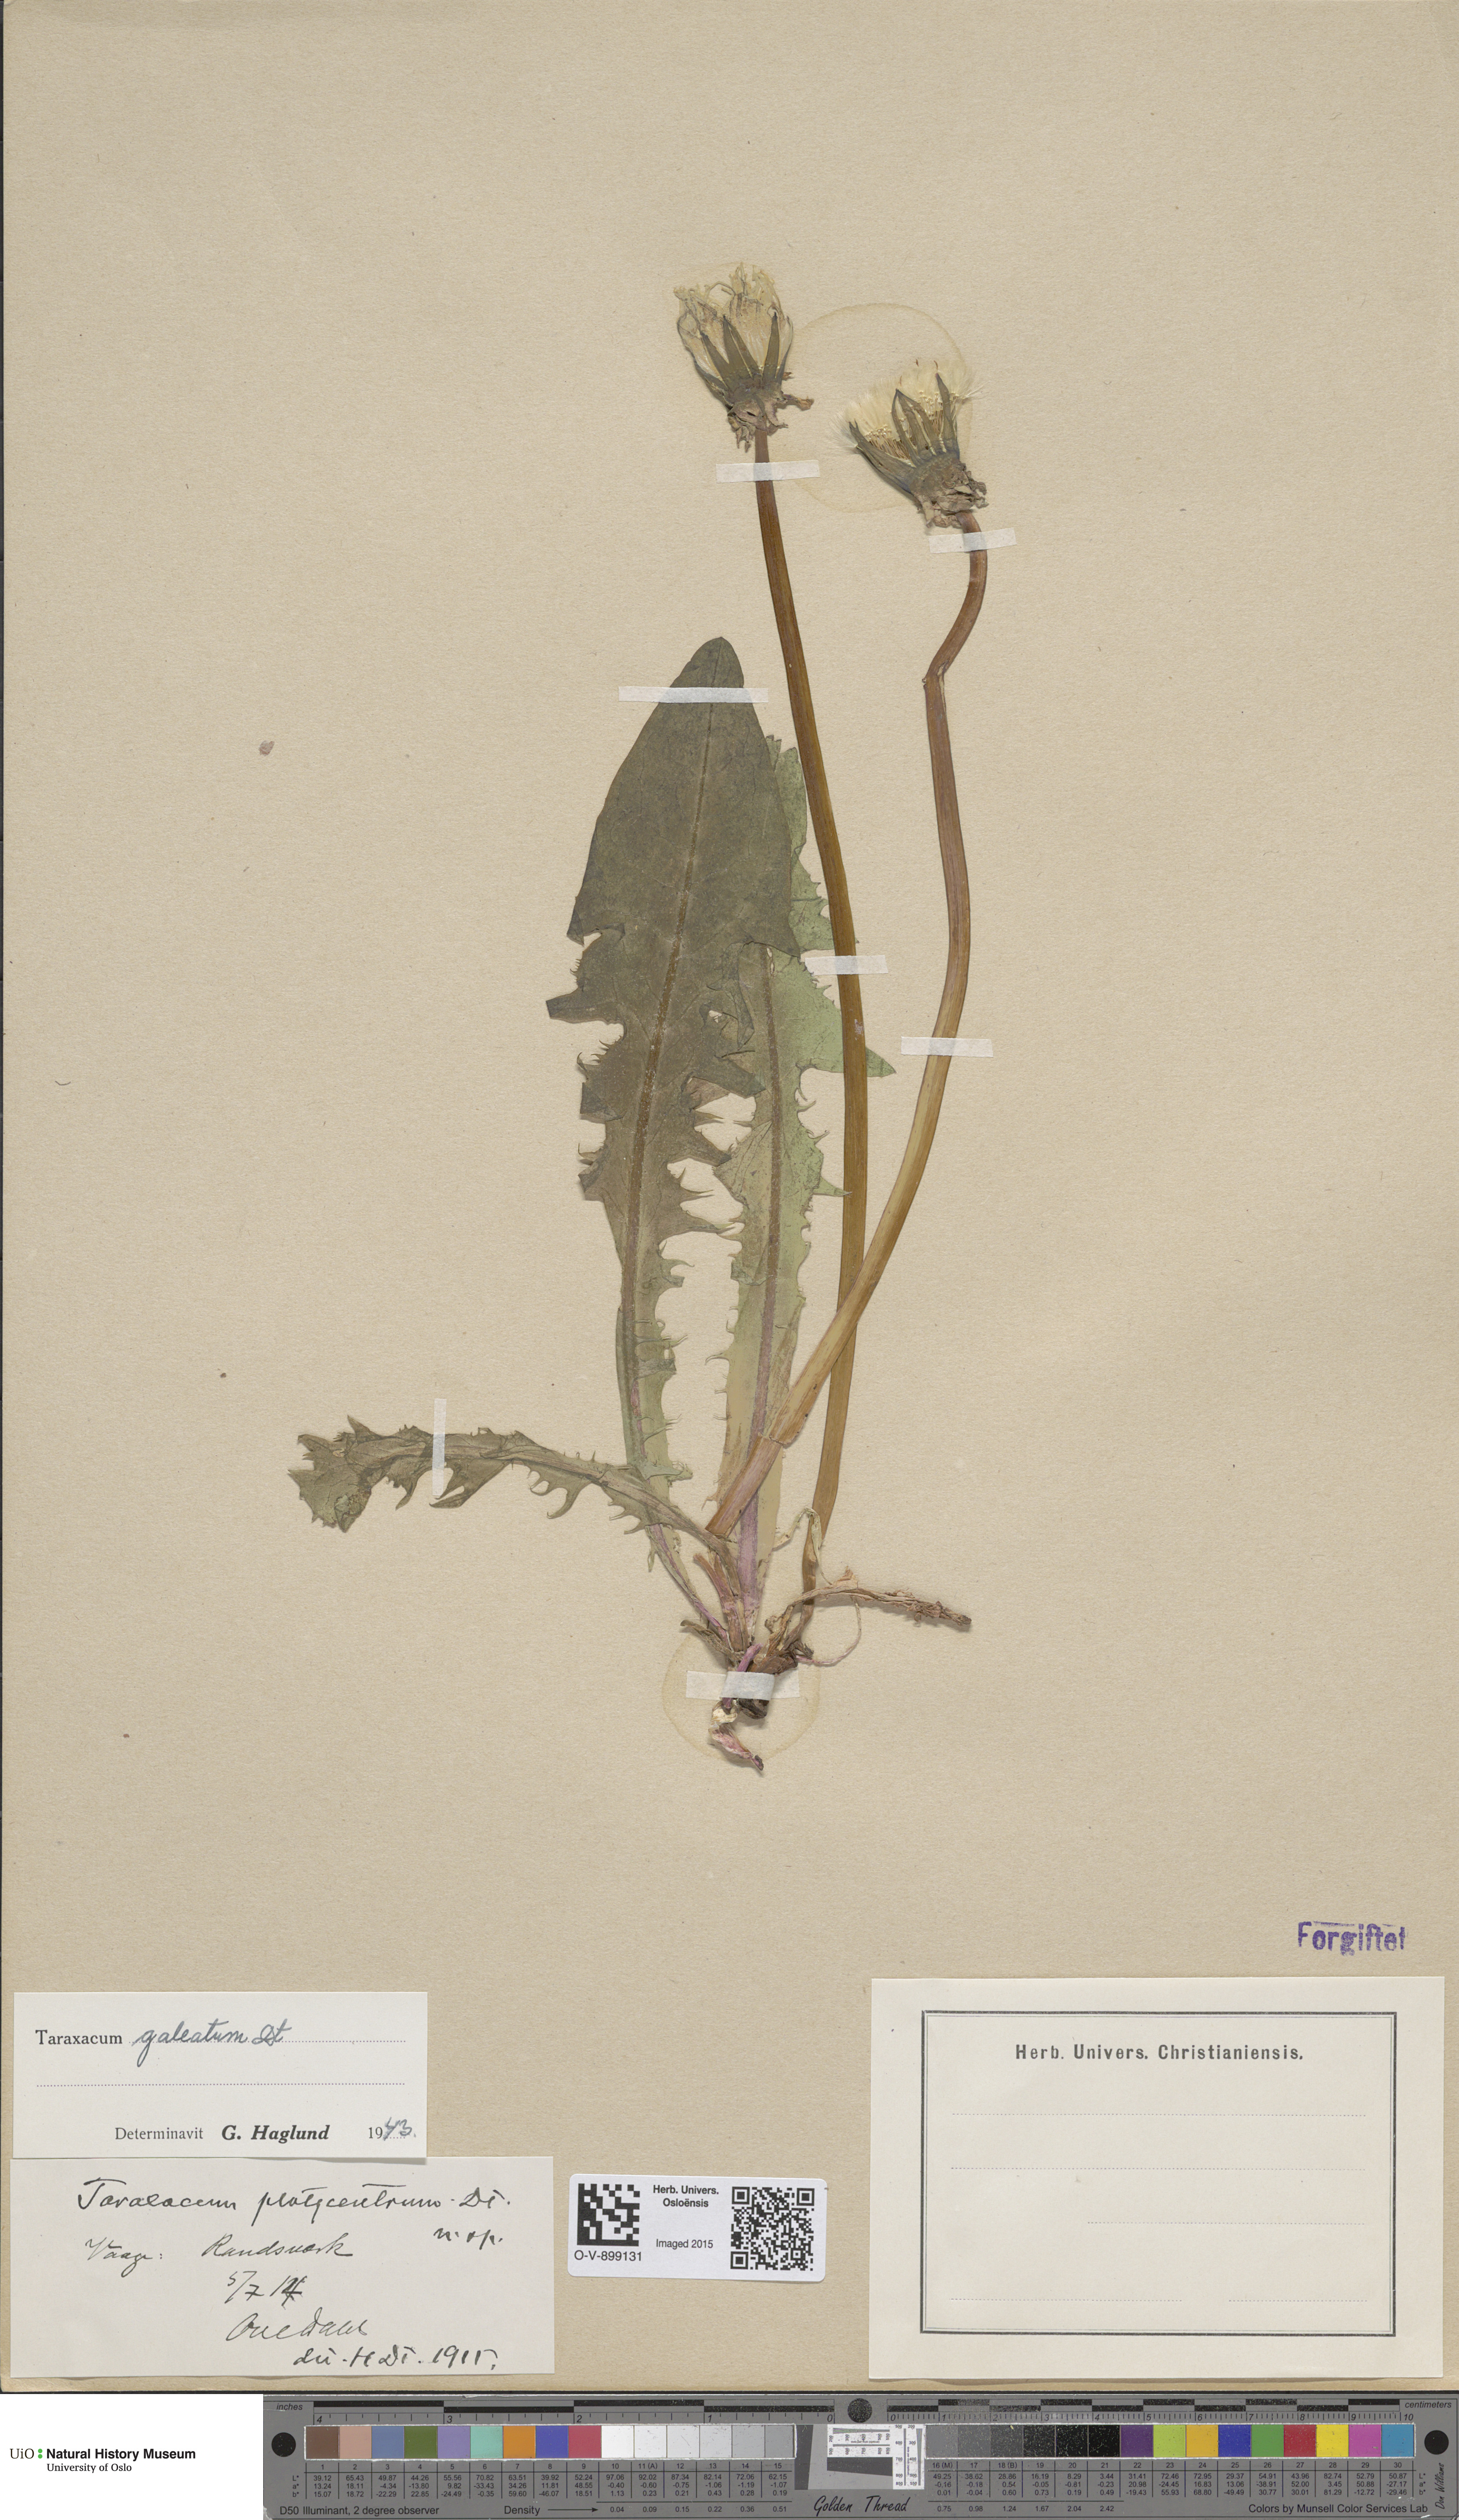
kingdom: Plantae
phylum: Tracheophyta
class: Magnoliopsida
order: Asterales
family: Asteraceae
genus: Taraxacum
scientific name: Taraxacum galeatum
